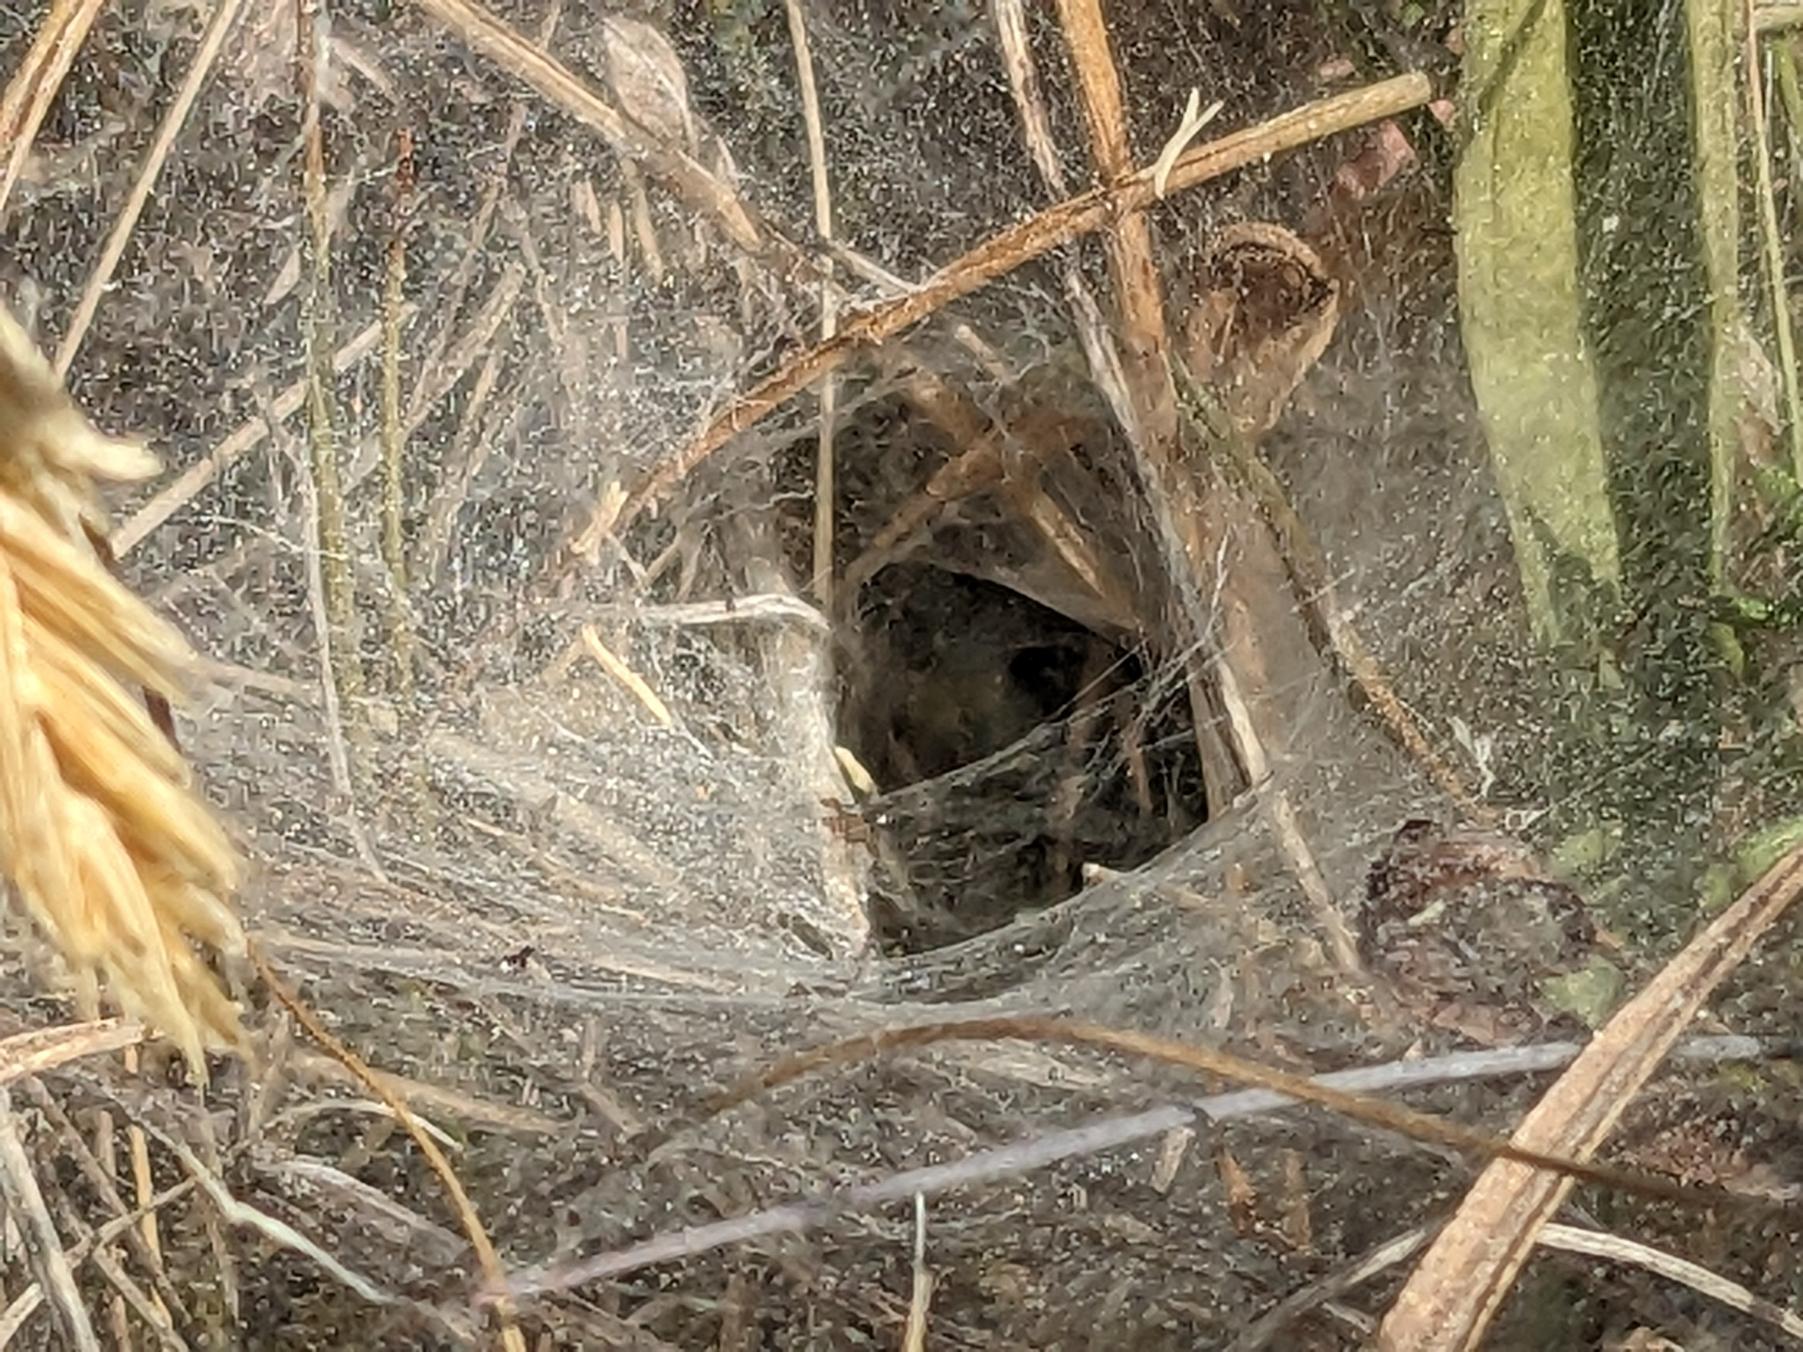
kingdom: Animalia
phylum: Arthropoda
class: Arachnida
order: Araneae
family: Agelenidae
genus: Agelena
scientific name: Agelena labyrinthica
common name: Labyrintedderkop
